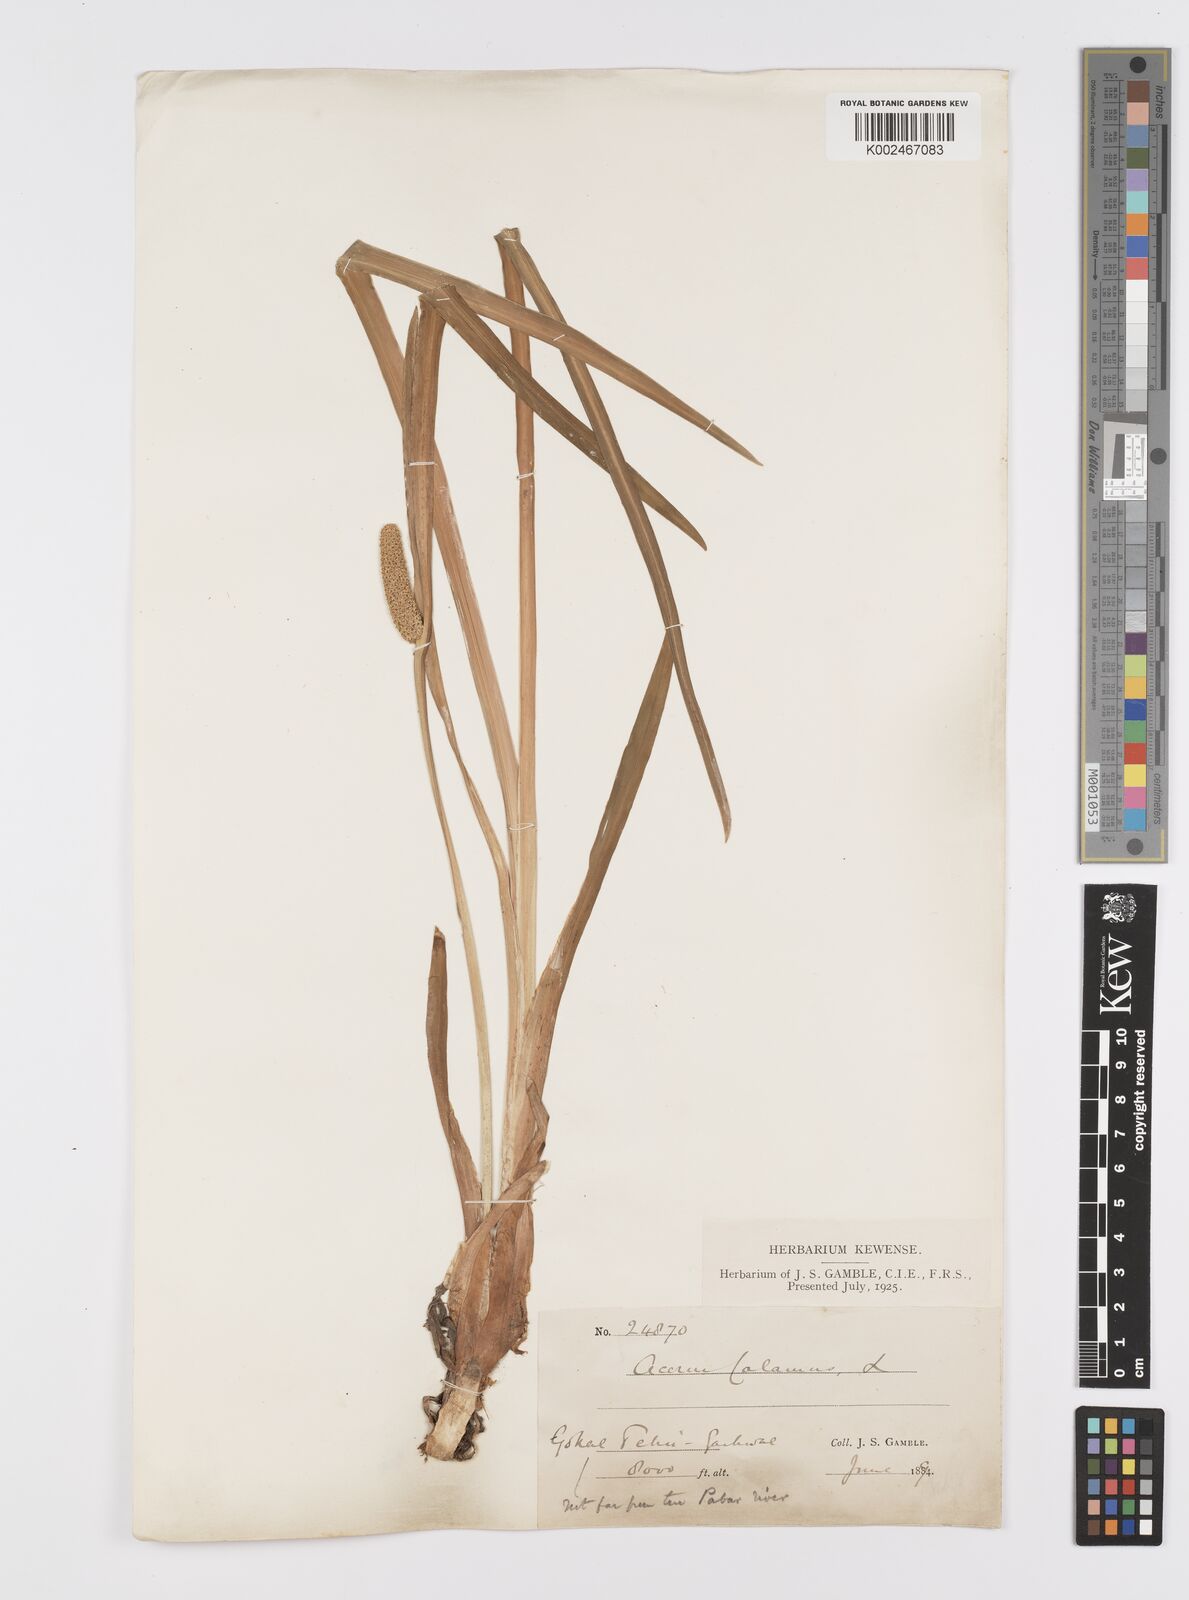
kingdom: Plantae
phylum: Tracheophyta
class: Liliopsida
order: Acorales
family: Acoraceae
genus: Acorus
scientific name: Acorus calamus
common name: Sweet-flag
